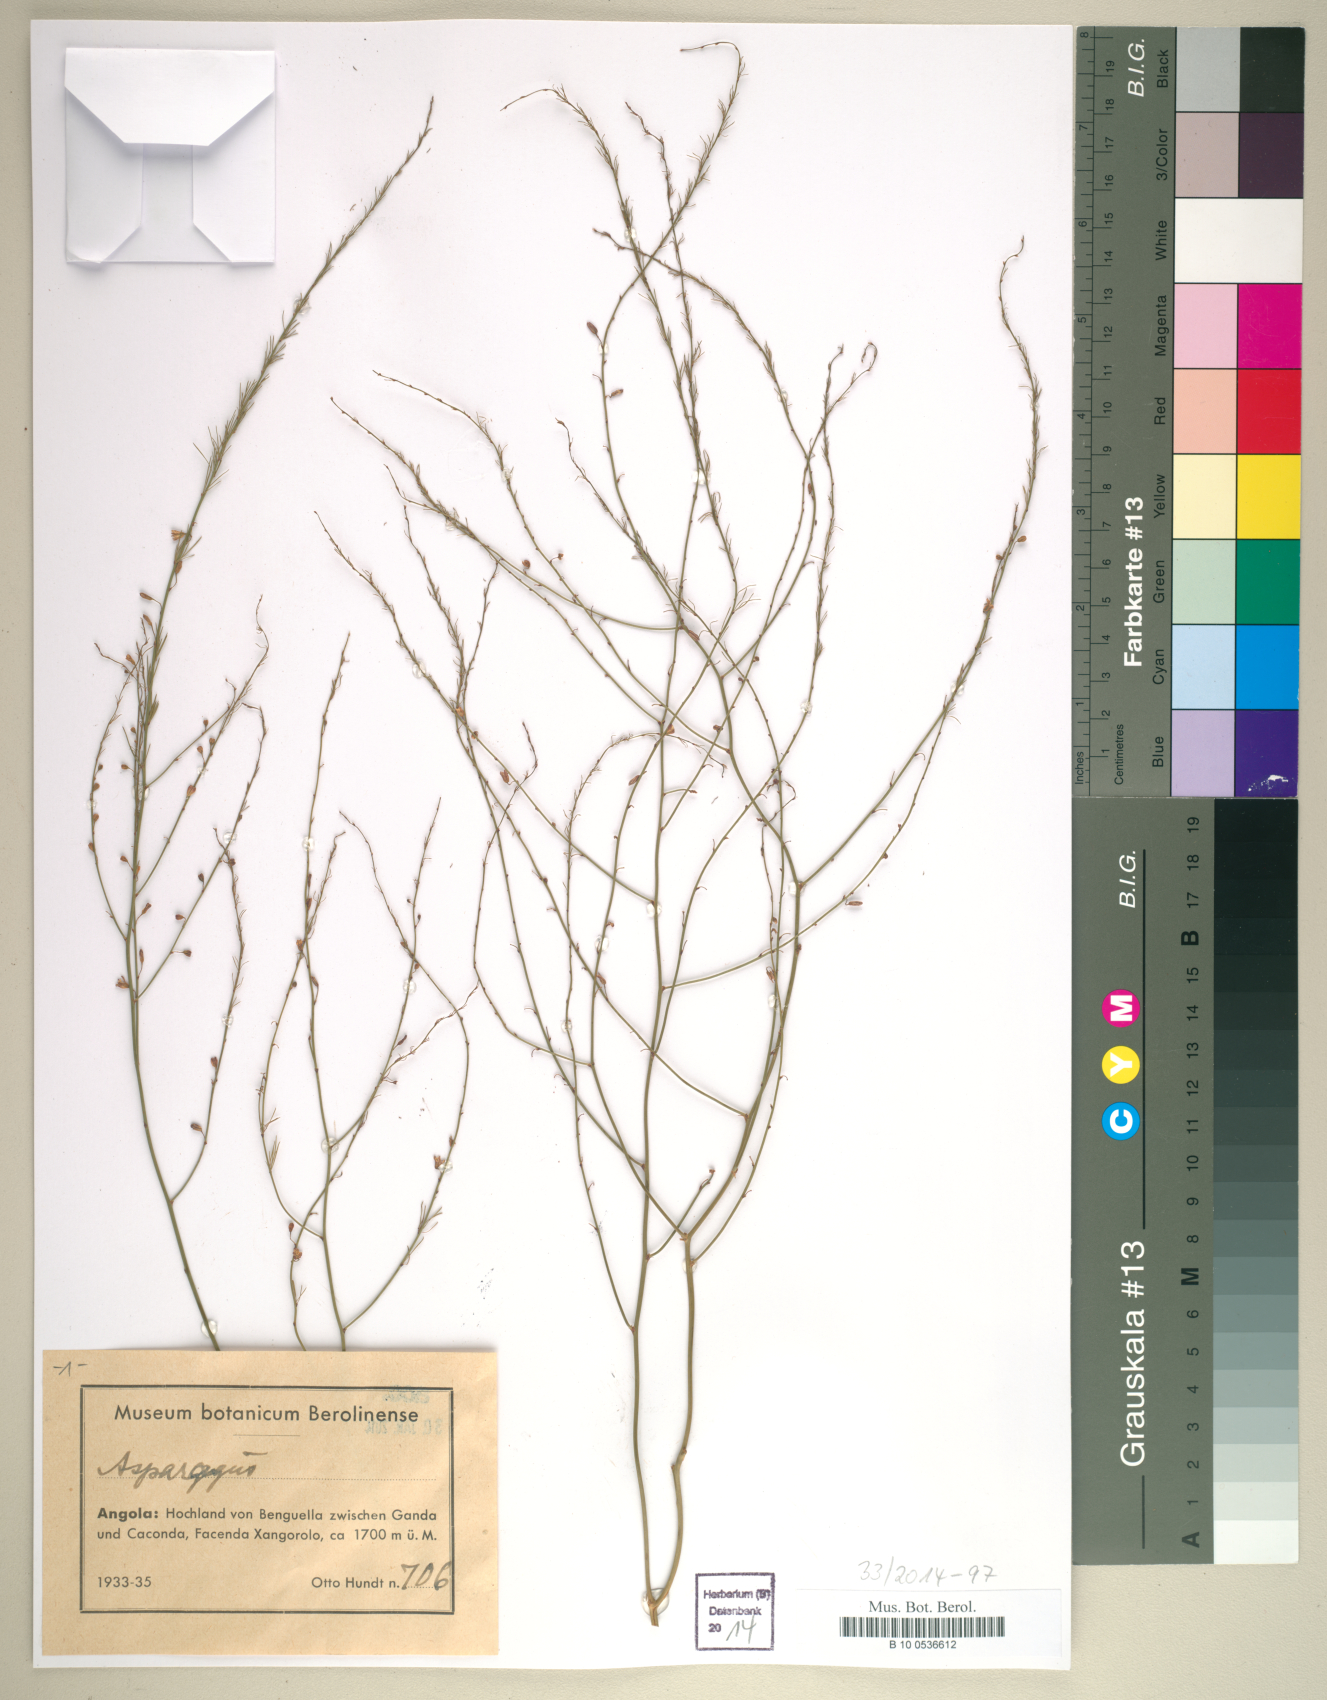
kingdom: Plantae
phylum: Tracheophyta
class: Liliopsida
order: Liliales
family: Liliaceae
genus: Asparagus
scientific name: Asparagus
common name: Asparagus
